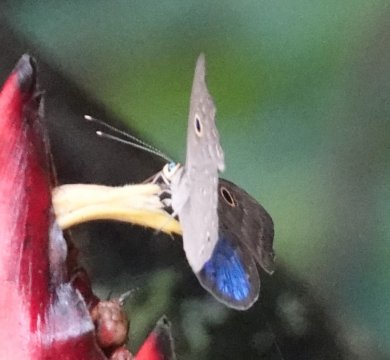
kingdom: Animalia
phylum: Cnidaria
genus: Eurybia
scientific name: Eurybia lycisca
